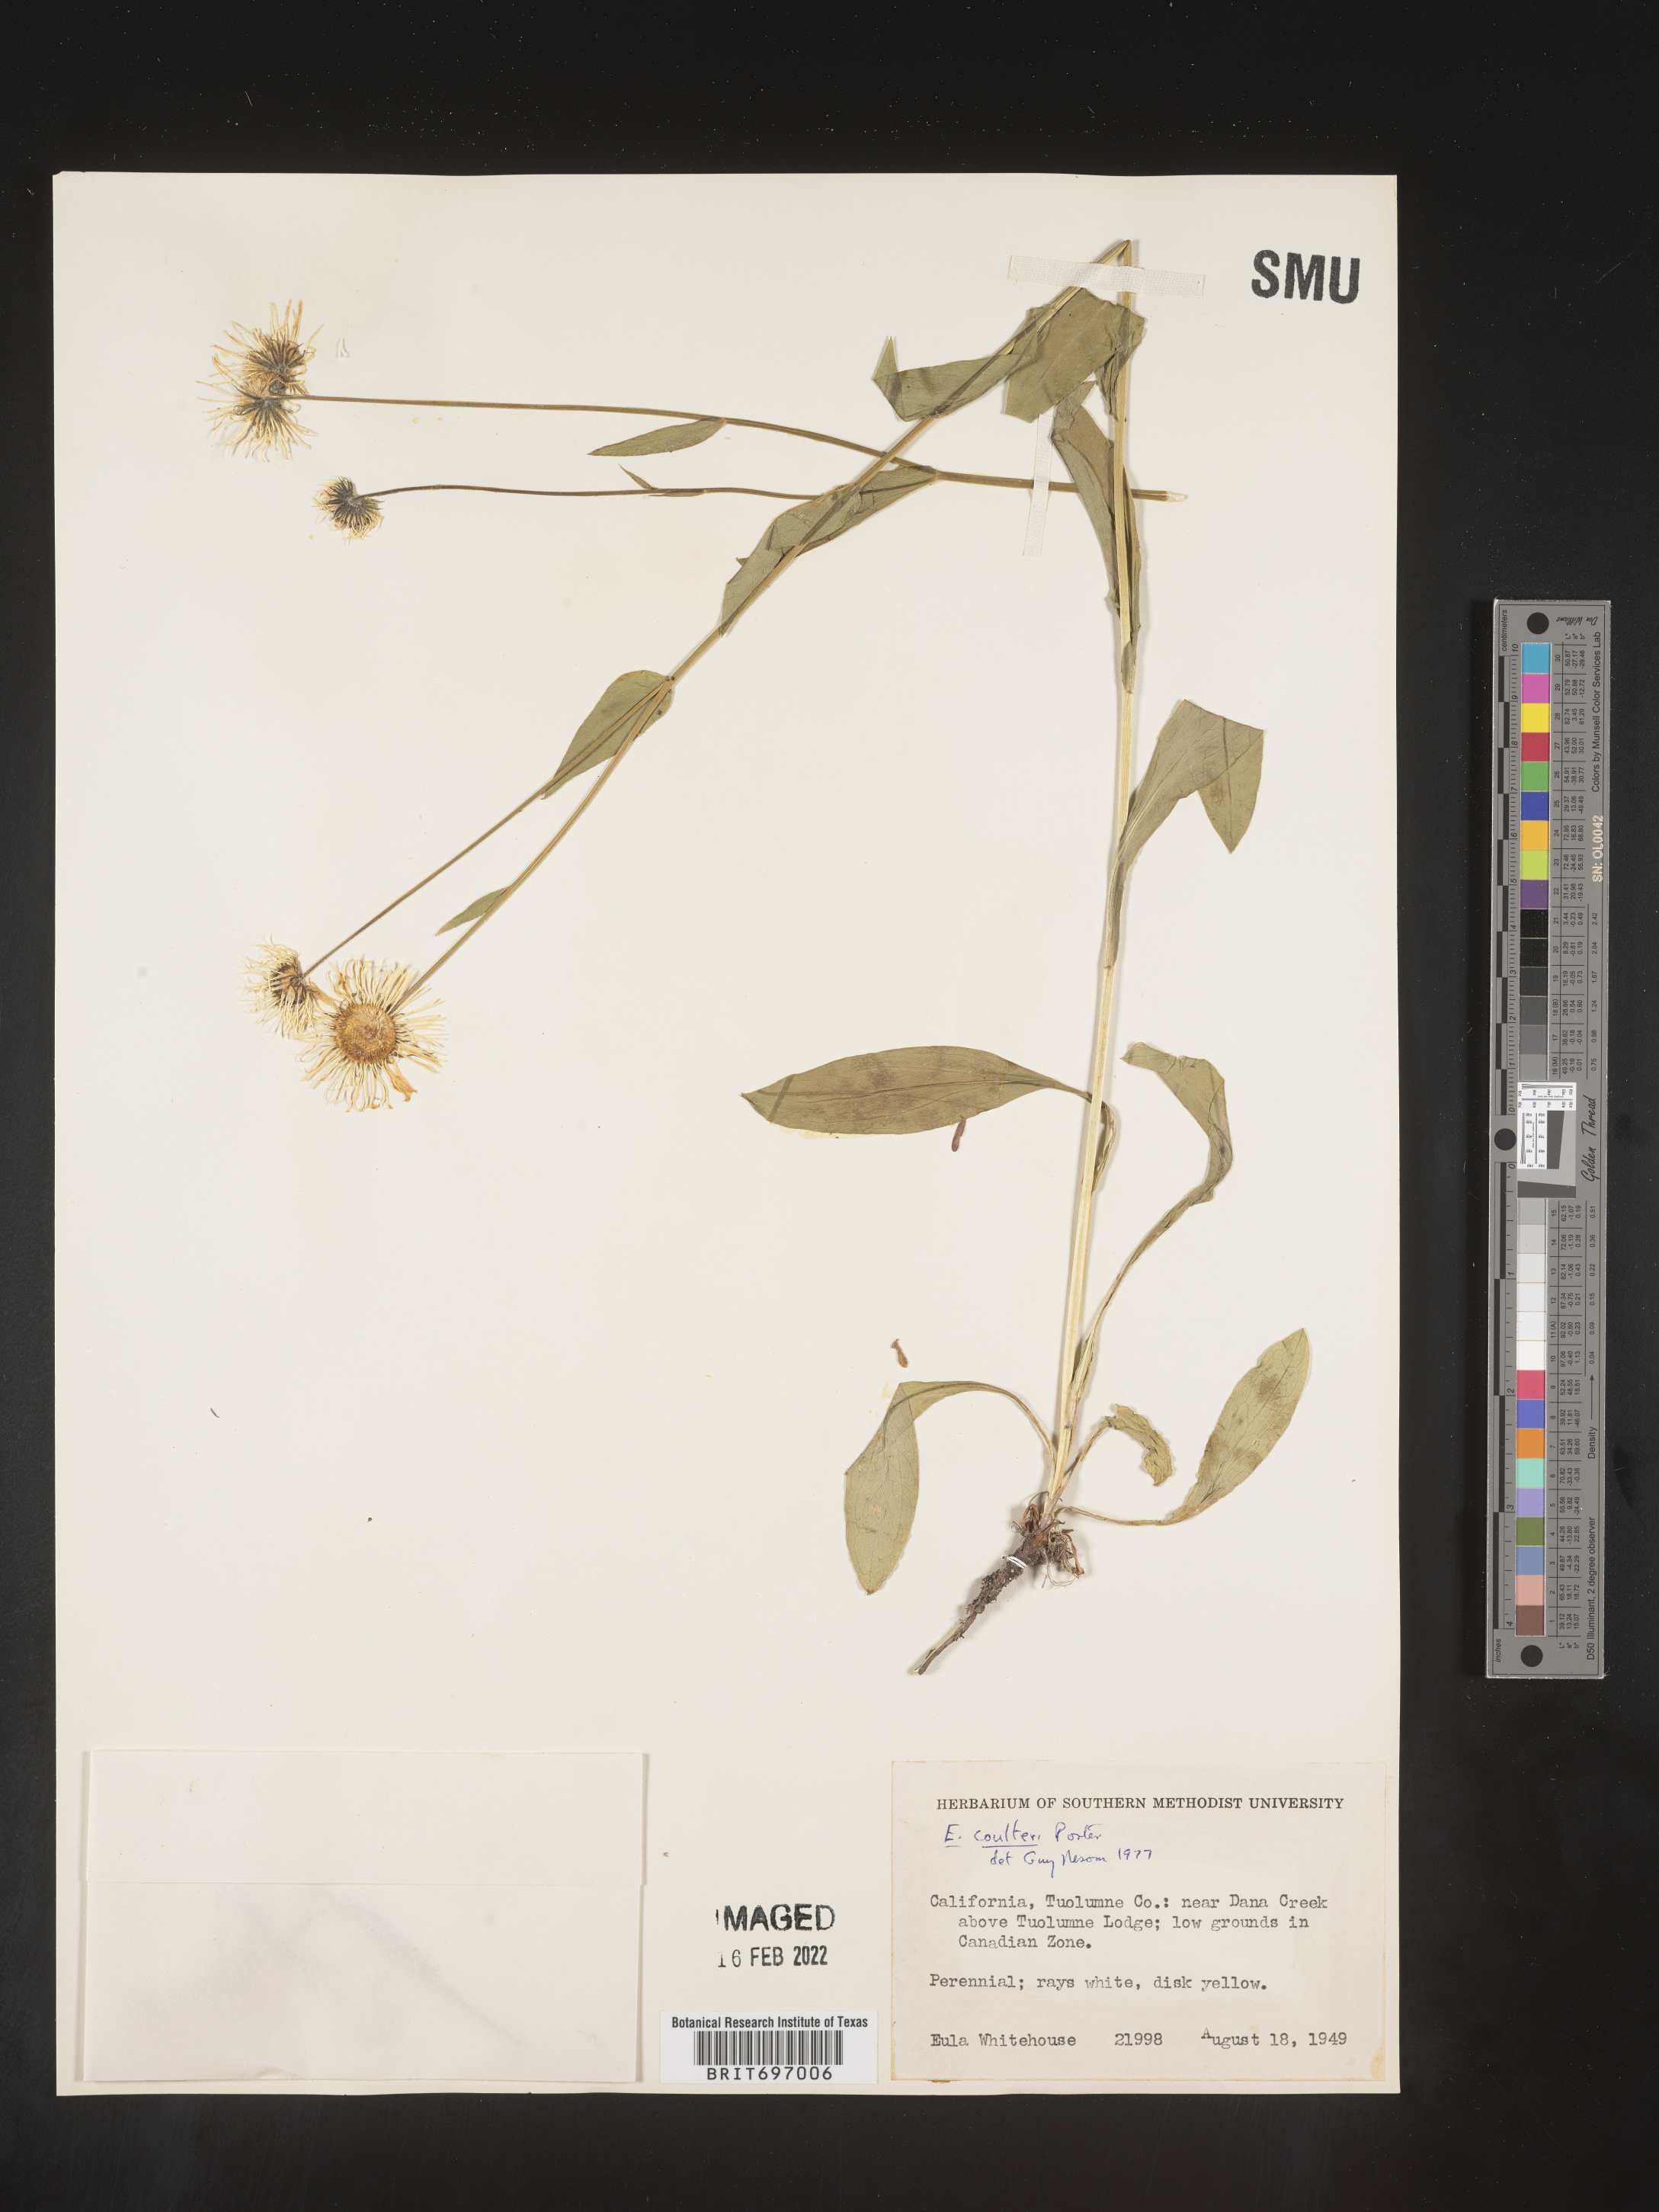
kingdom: Plantae
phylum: Tracheophyta
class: Magnoliopsida
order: Asterales
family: Asteraceae
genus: Erigeron
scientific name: Erigeron coulteri
